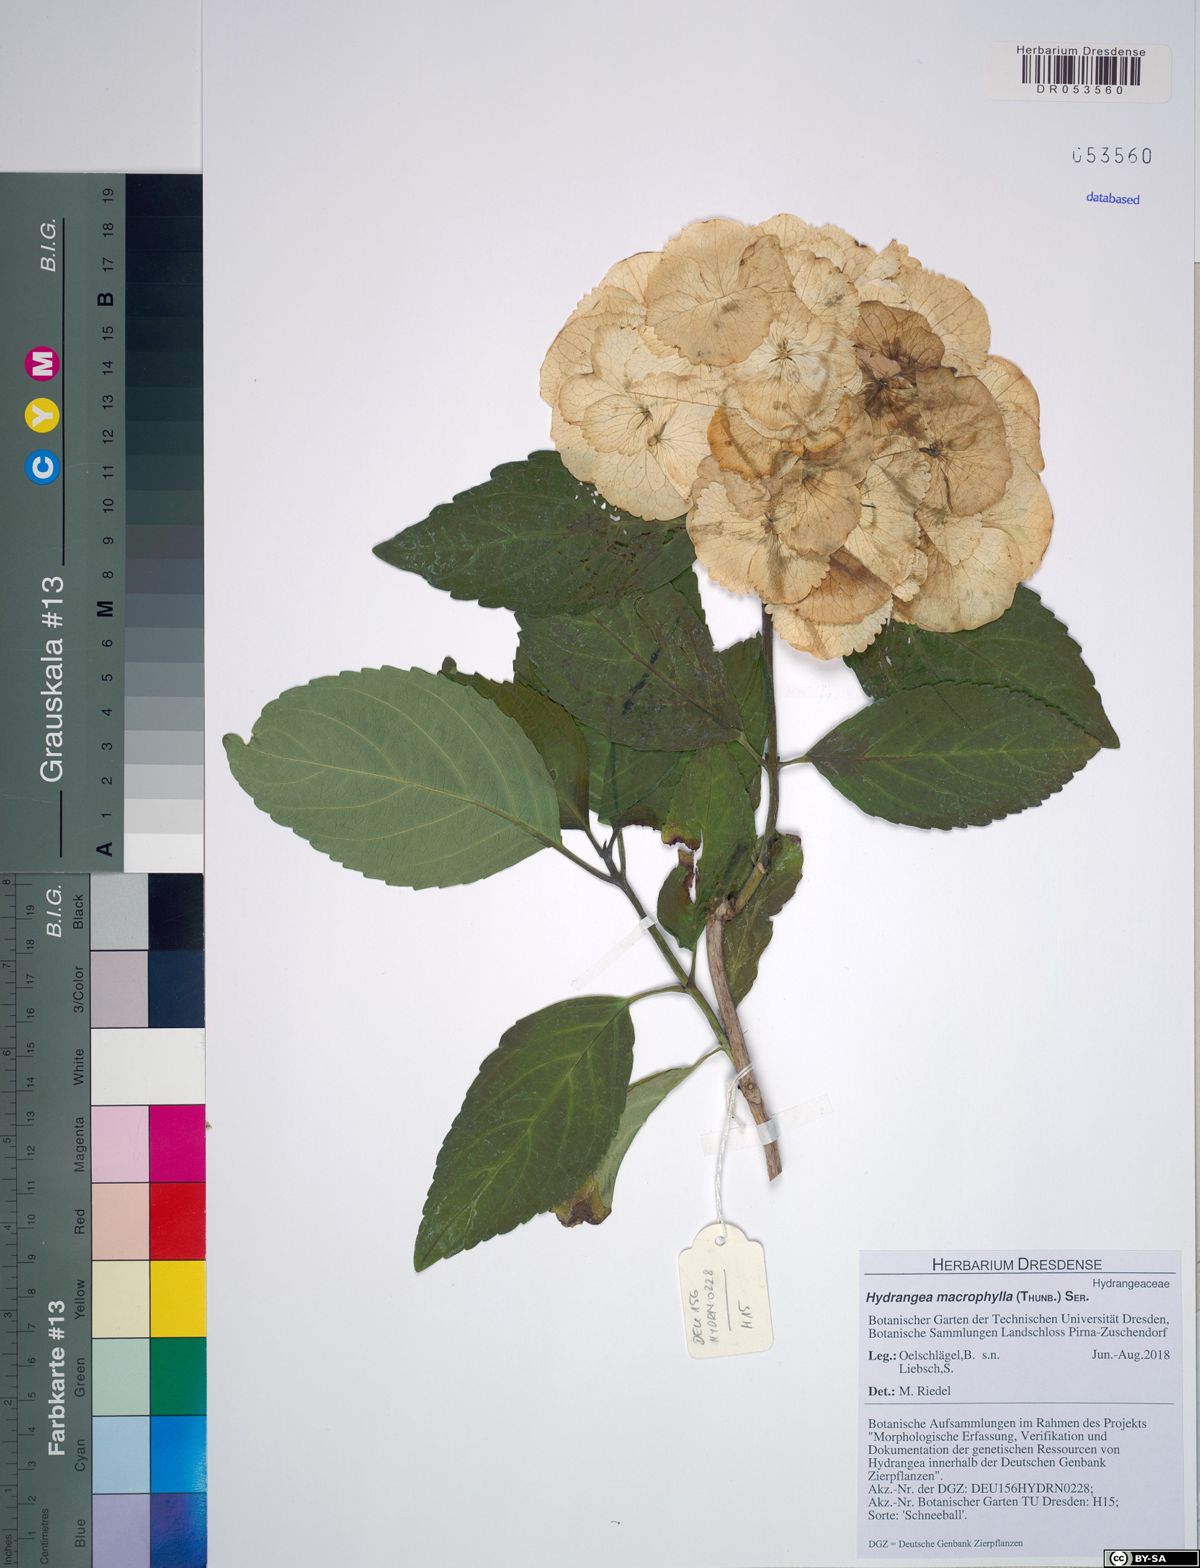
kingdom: Plantae
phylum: Tracheophyta
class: Magnoliopsida
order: Cornales
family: Hydrangeaceae
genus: Hydrangea
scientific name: Hydrangea macrophylla
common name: Hydrangea
